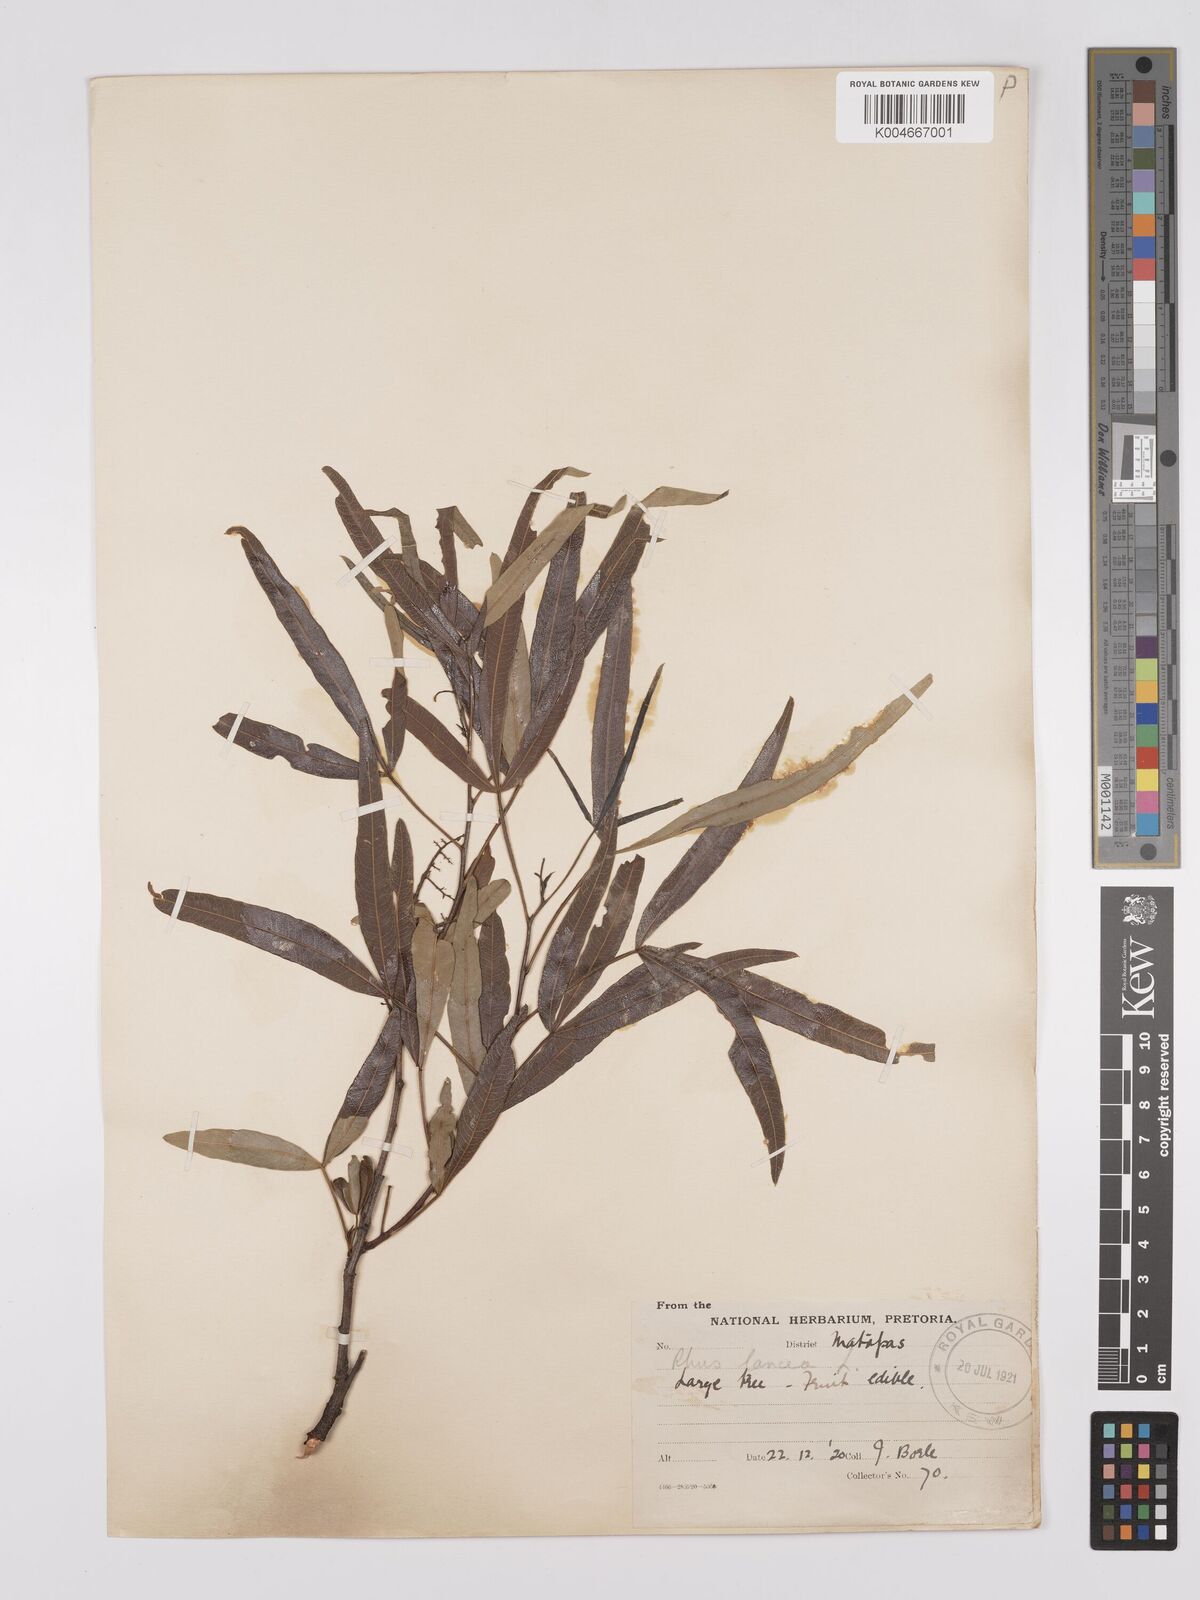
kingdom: Plantae
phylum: Tracheophyta
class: Magnoliopsida
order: Sapindales
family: Anacardiaceae
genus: Searsia
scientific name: Searsia lancea
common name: Cashew
